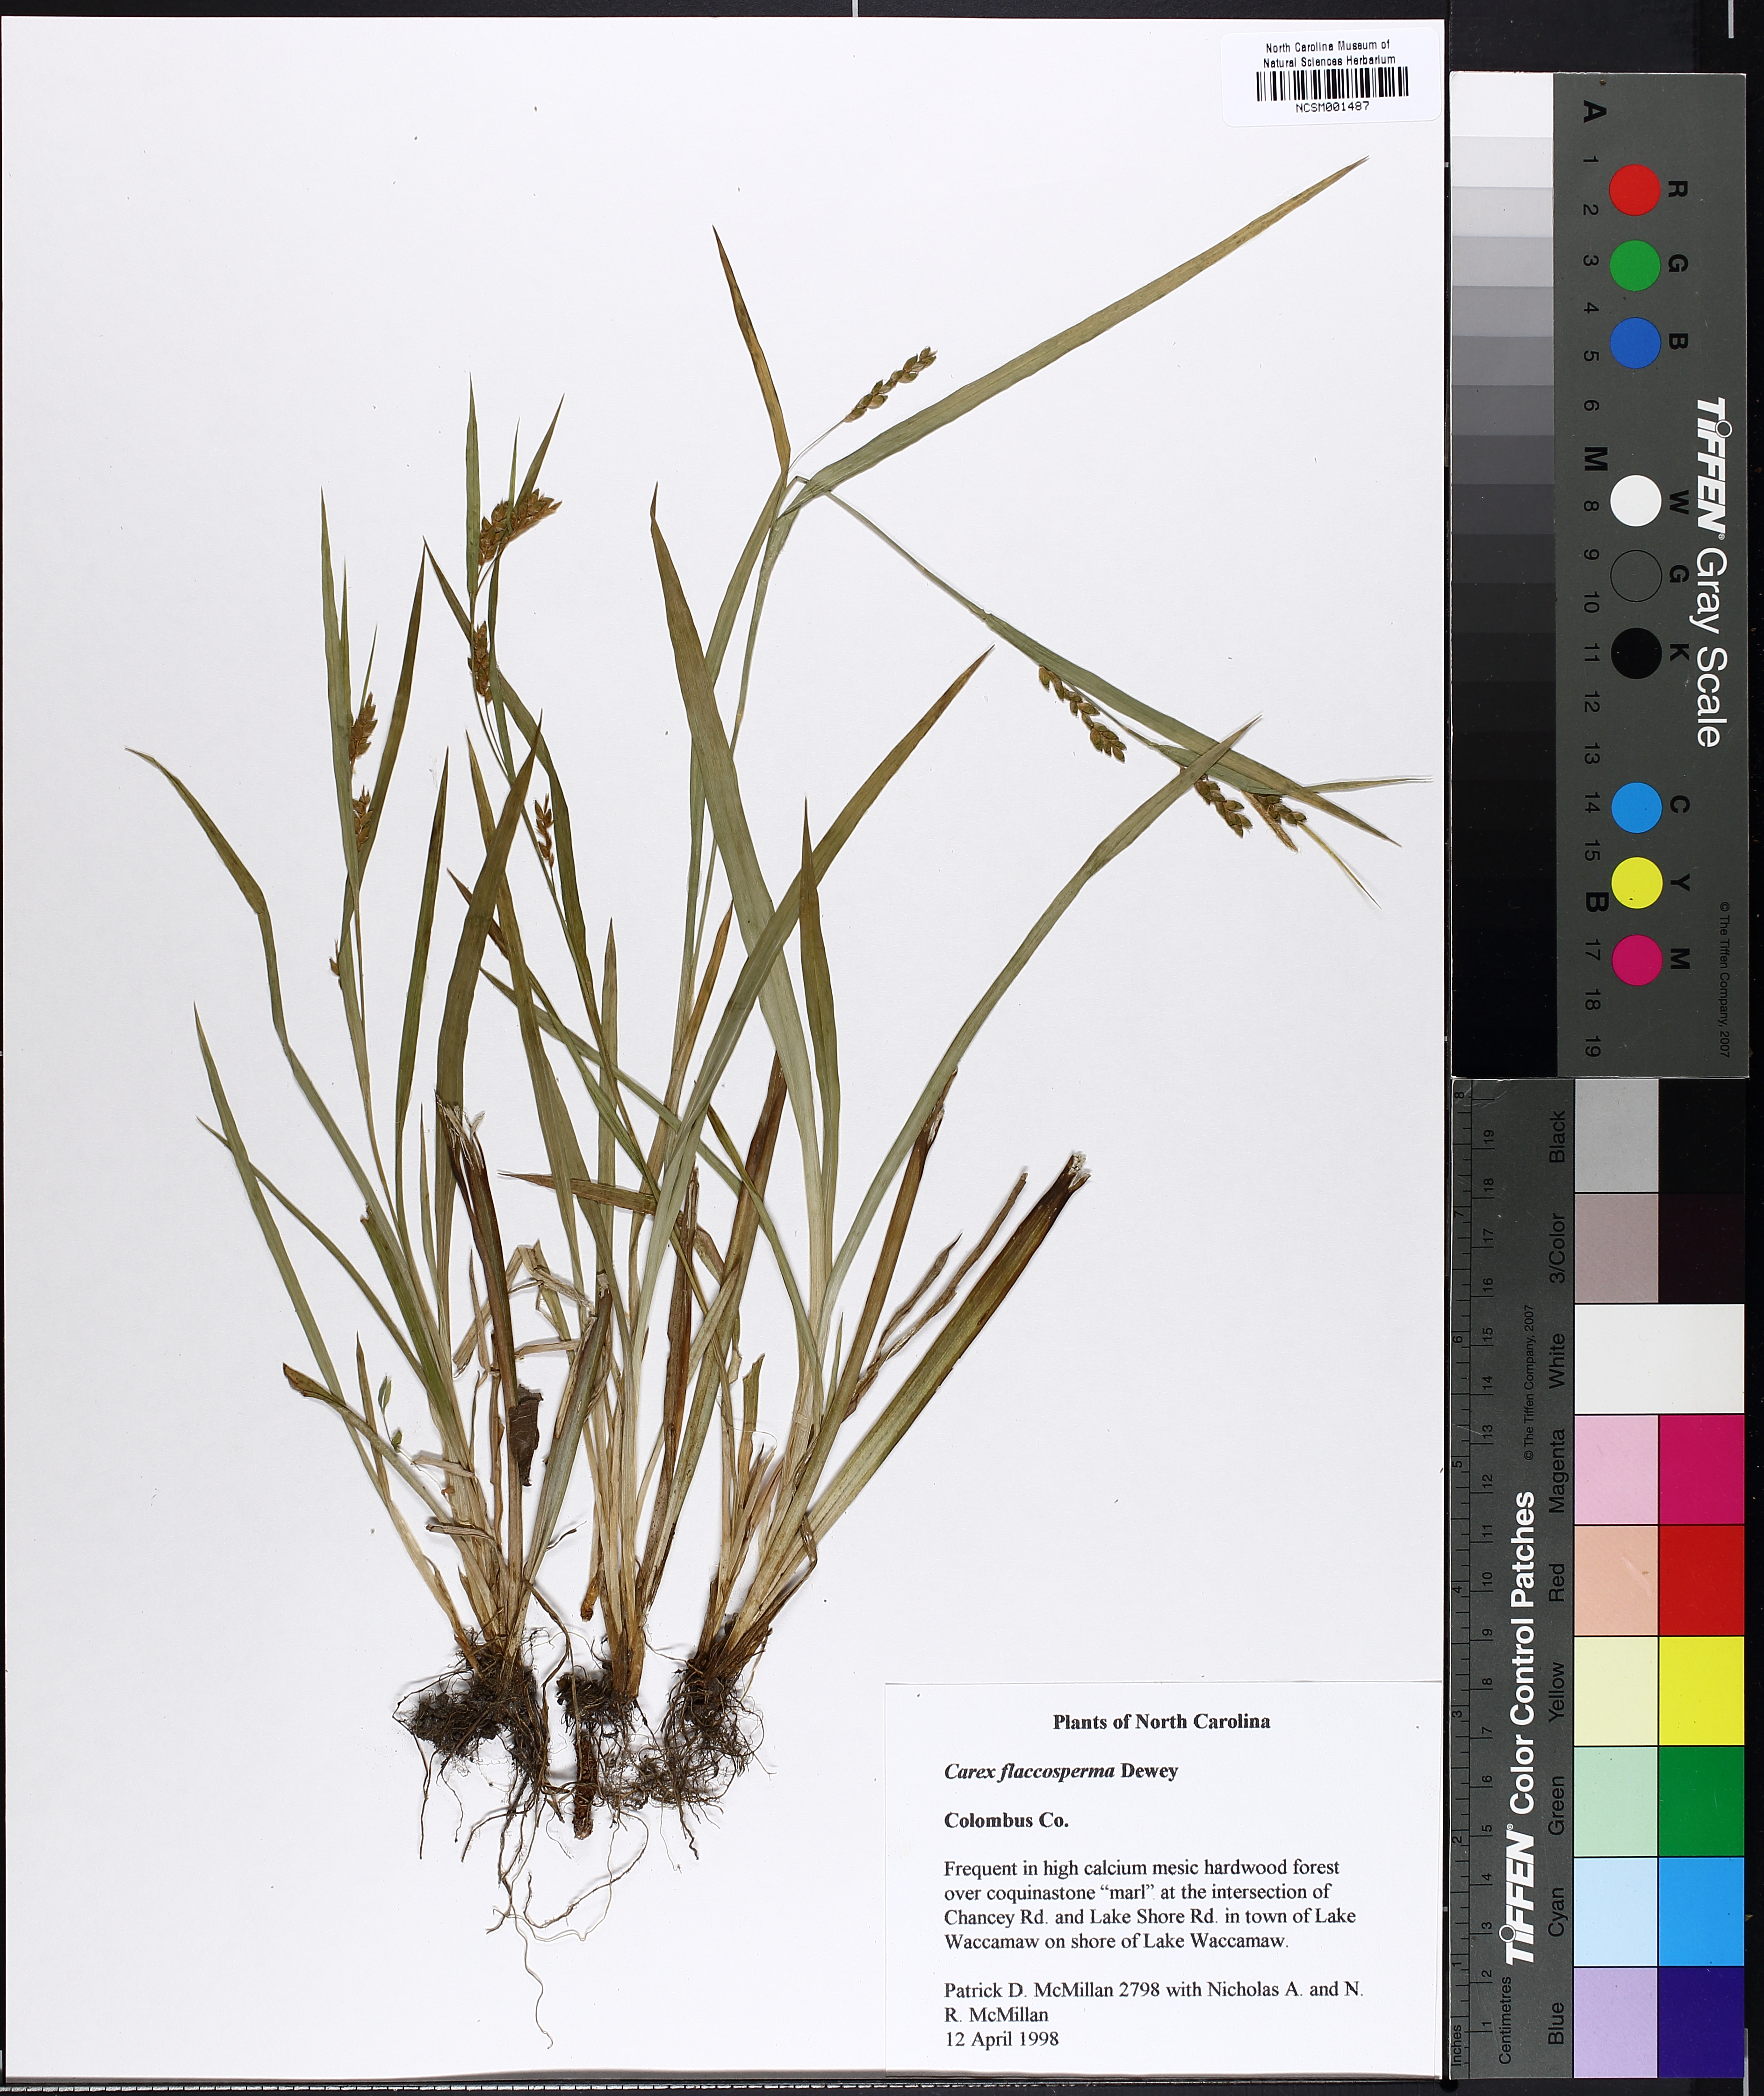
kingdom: Plantae
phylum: Tracheophyta
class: Liliopsida
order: Poales
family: Cyperaceae
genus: Carex
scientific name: Carex flaccosperma
